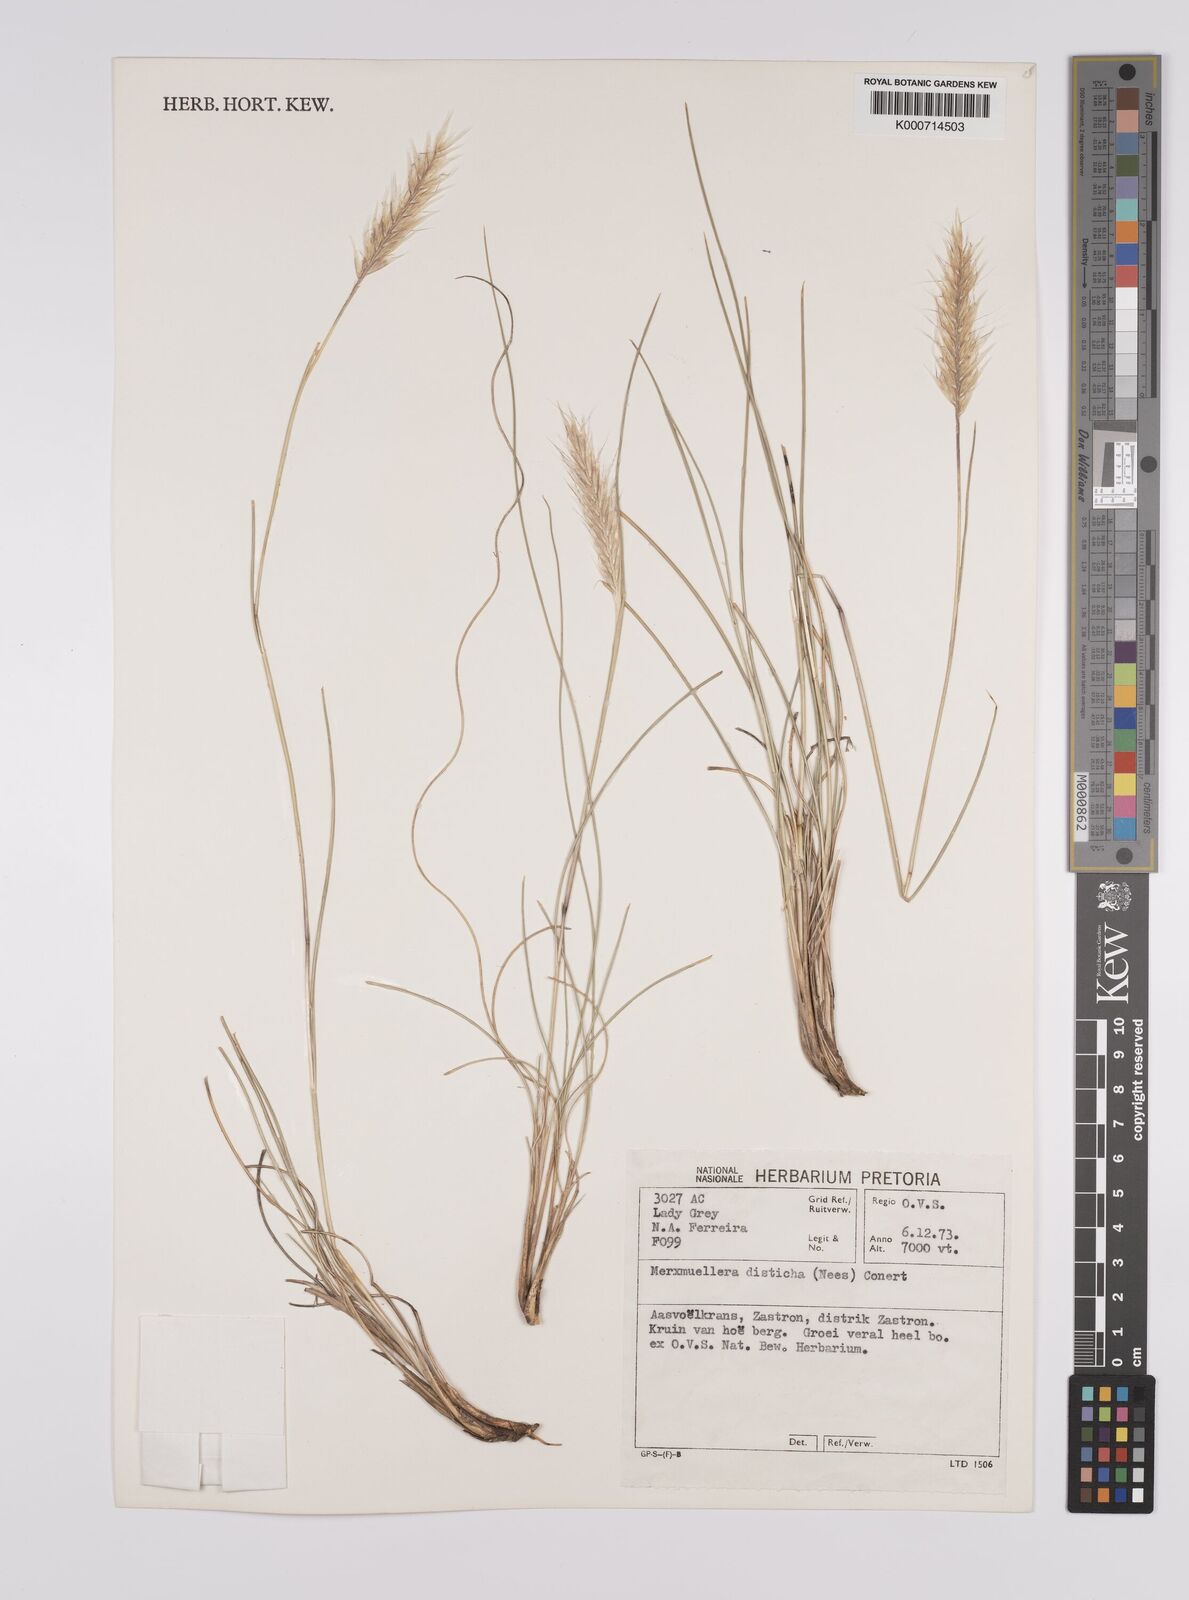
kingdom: Plantae
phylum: Tracheophyta
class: Liliopsida
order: Poales
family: Poaceae
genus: Tenaxia
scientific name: Tenaxia disticha
